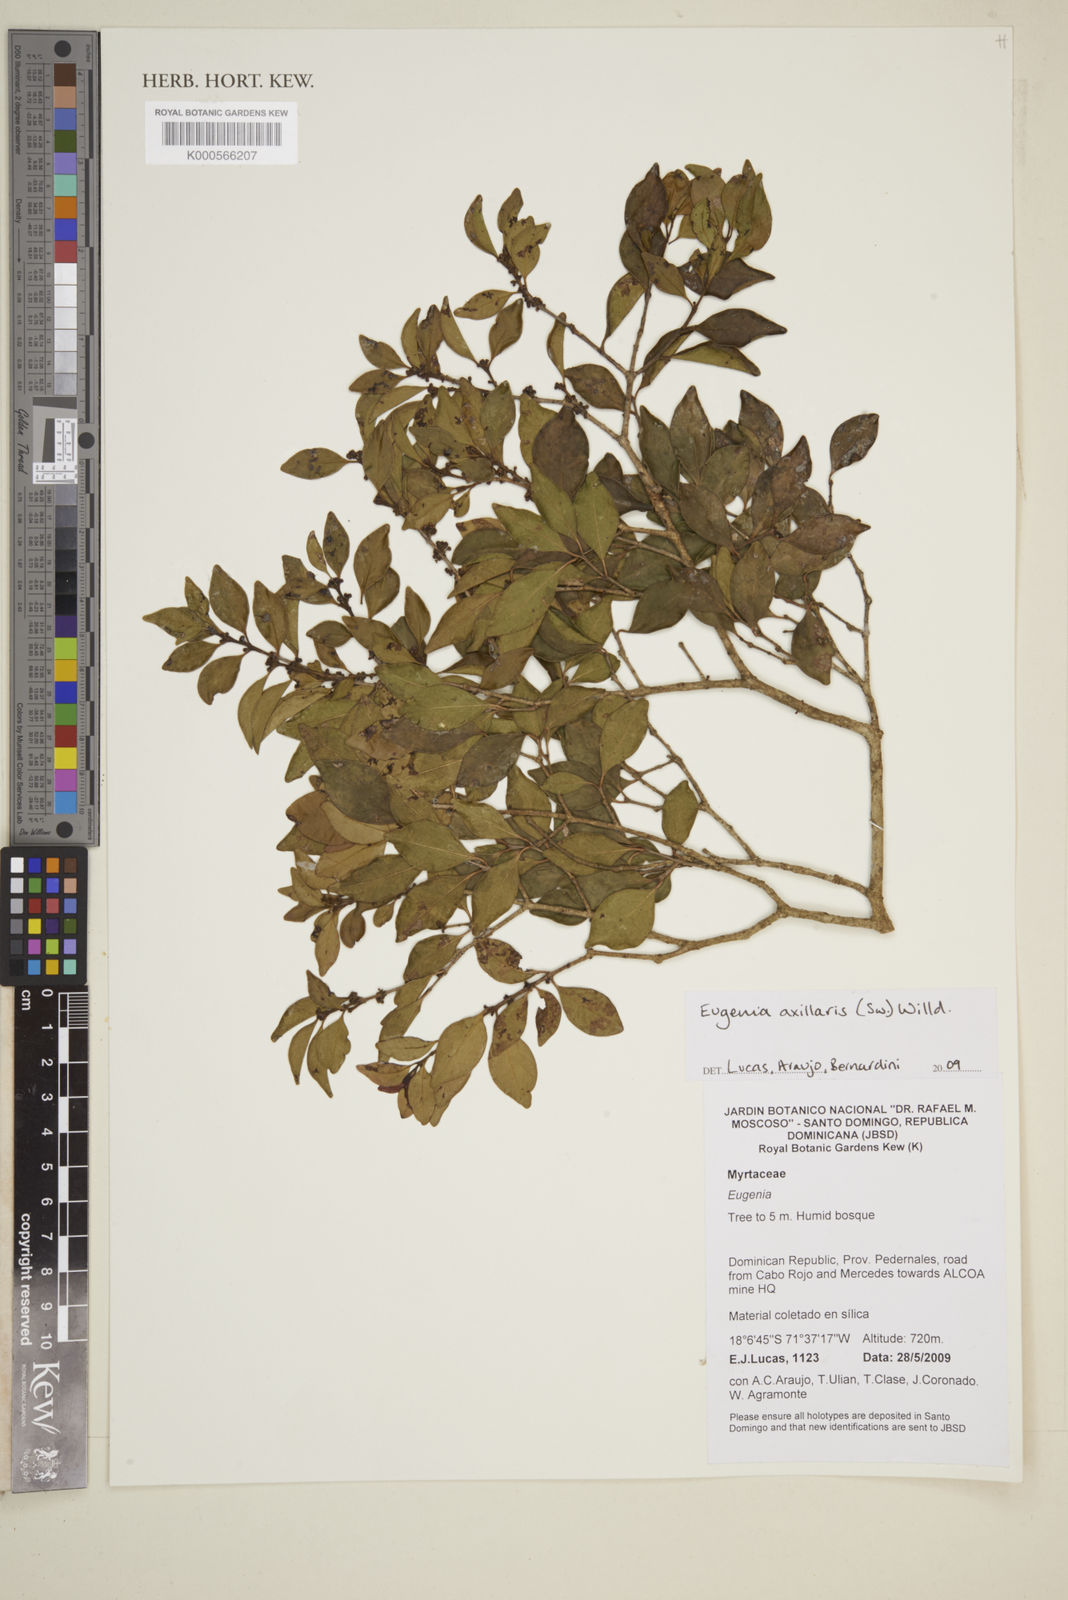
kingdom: Plantae
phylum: Tracheophyta
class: Magnoliopsida
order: Myrtales
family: Myrtaceae
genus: Eugenia
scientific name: Eugenia axillaris
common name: Choaky berry
